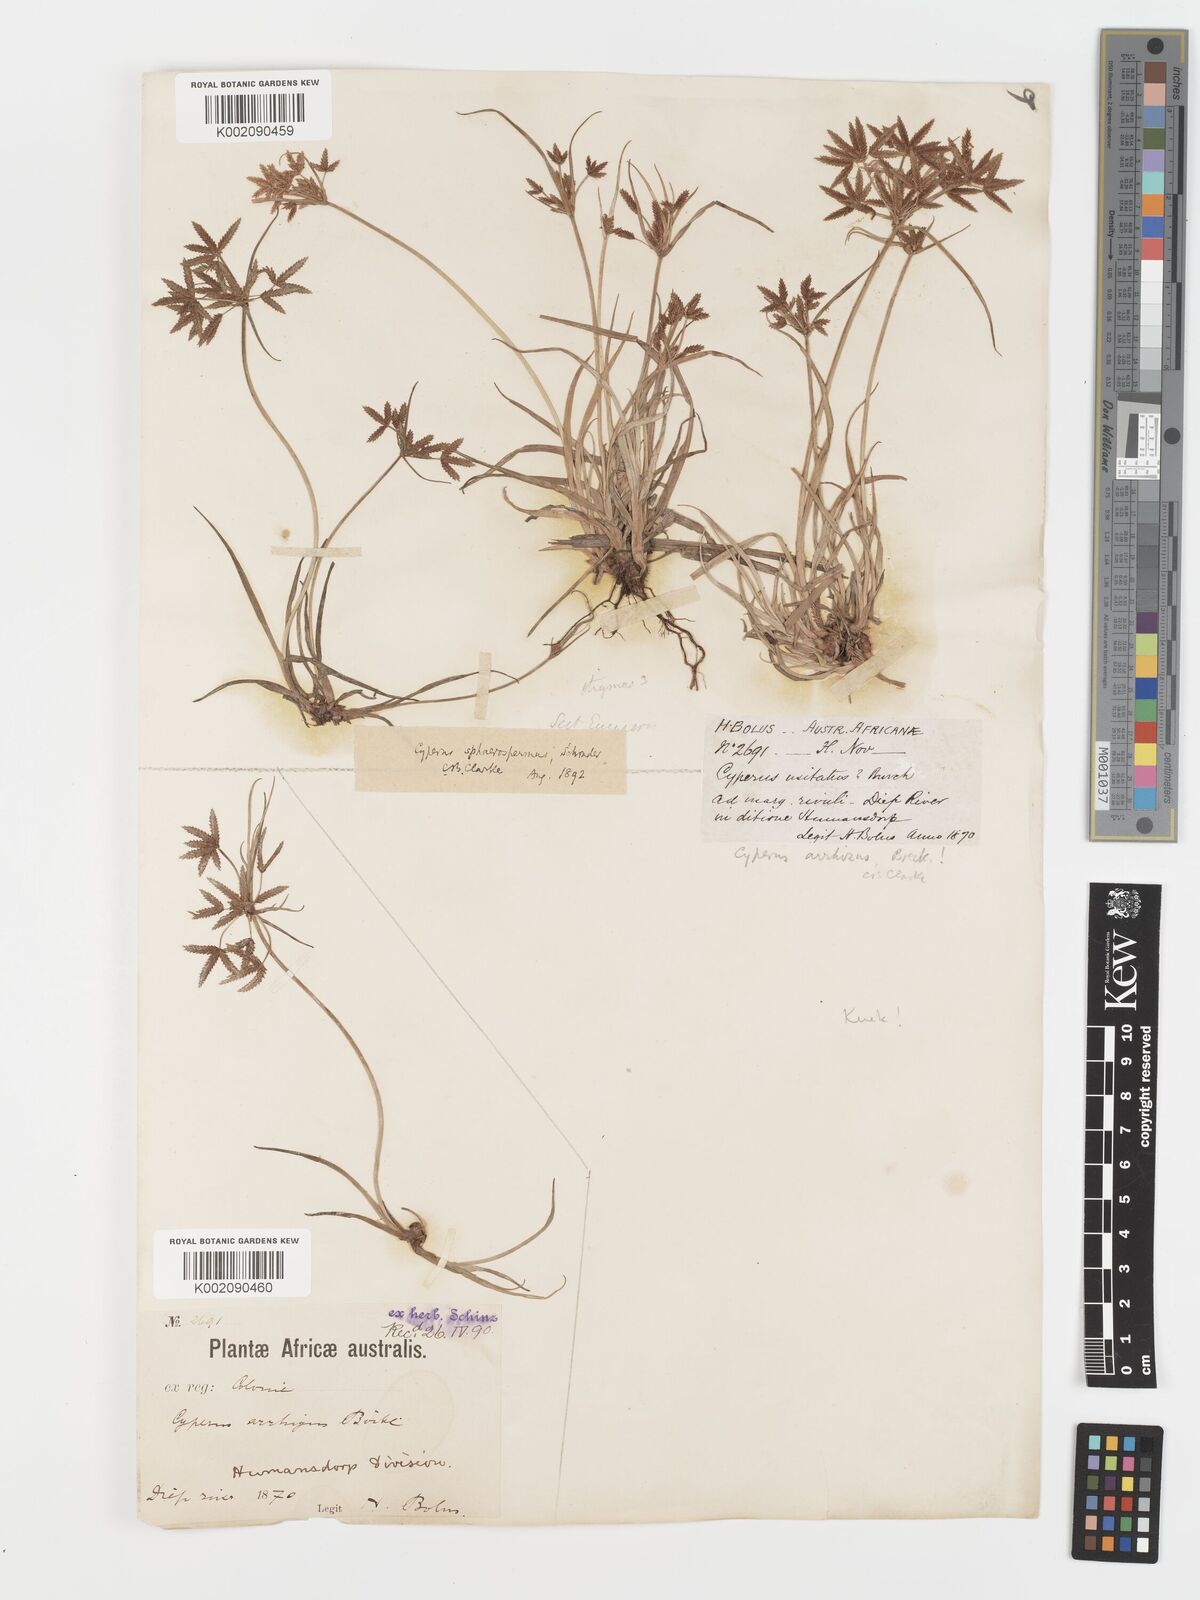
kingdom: Plantae
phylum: Tracheophyta
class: Liliopsida
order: Poales
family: Cyperaceae
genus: Cyperus
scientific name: Cyperus sphaerospermus
